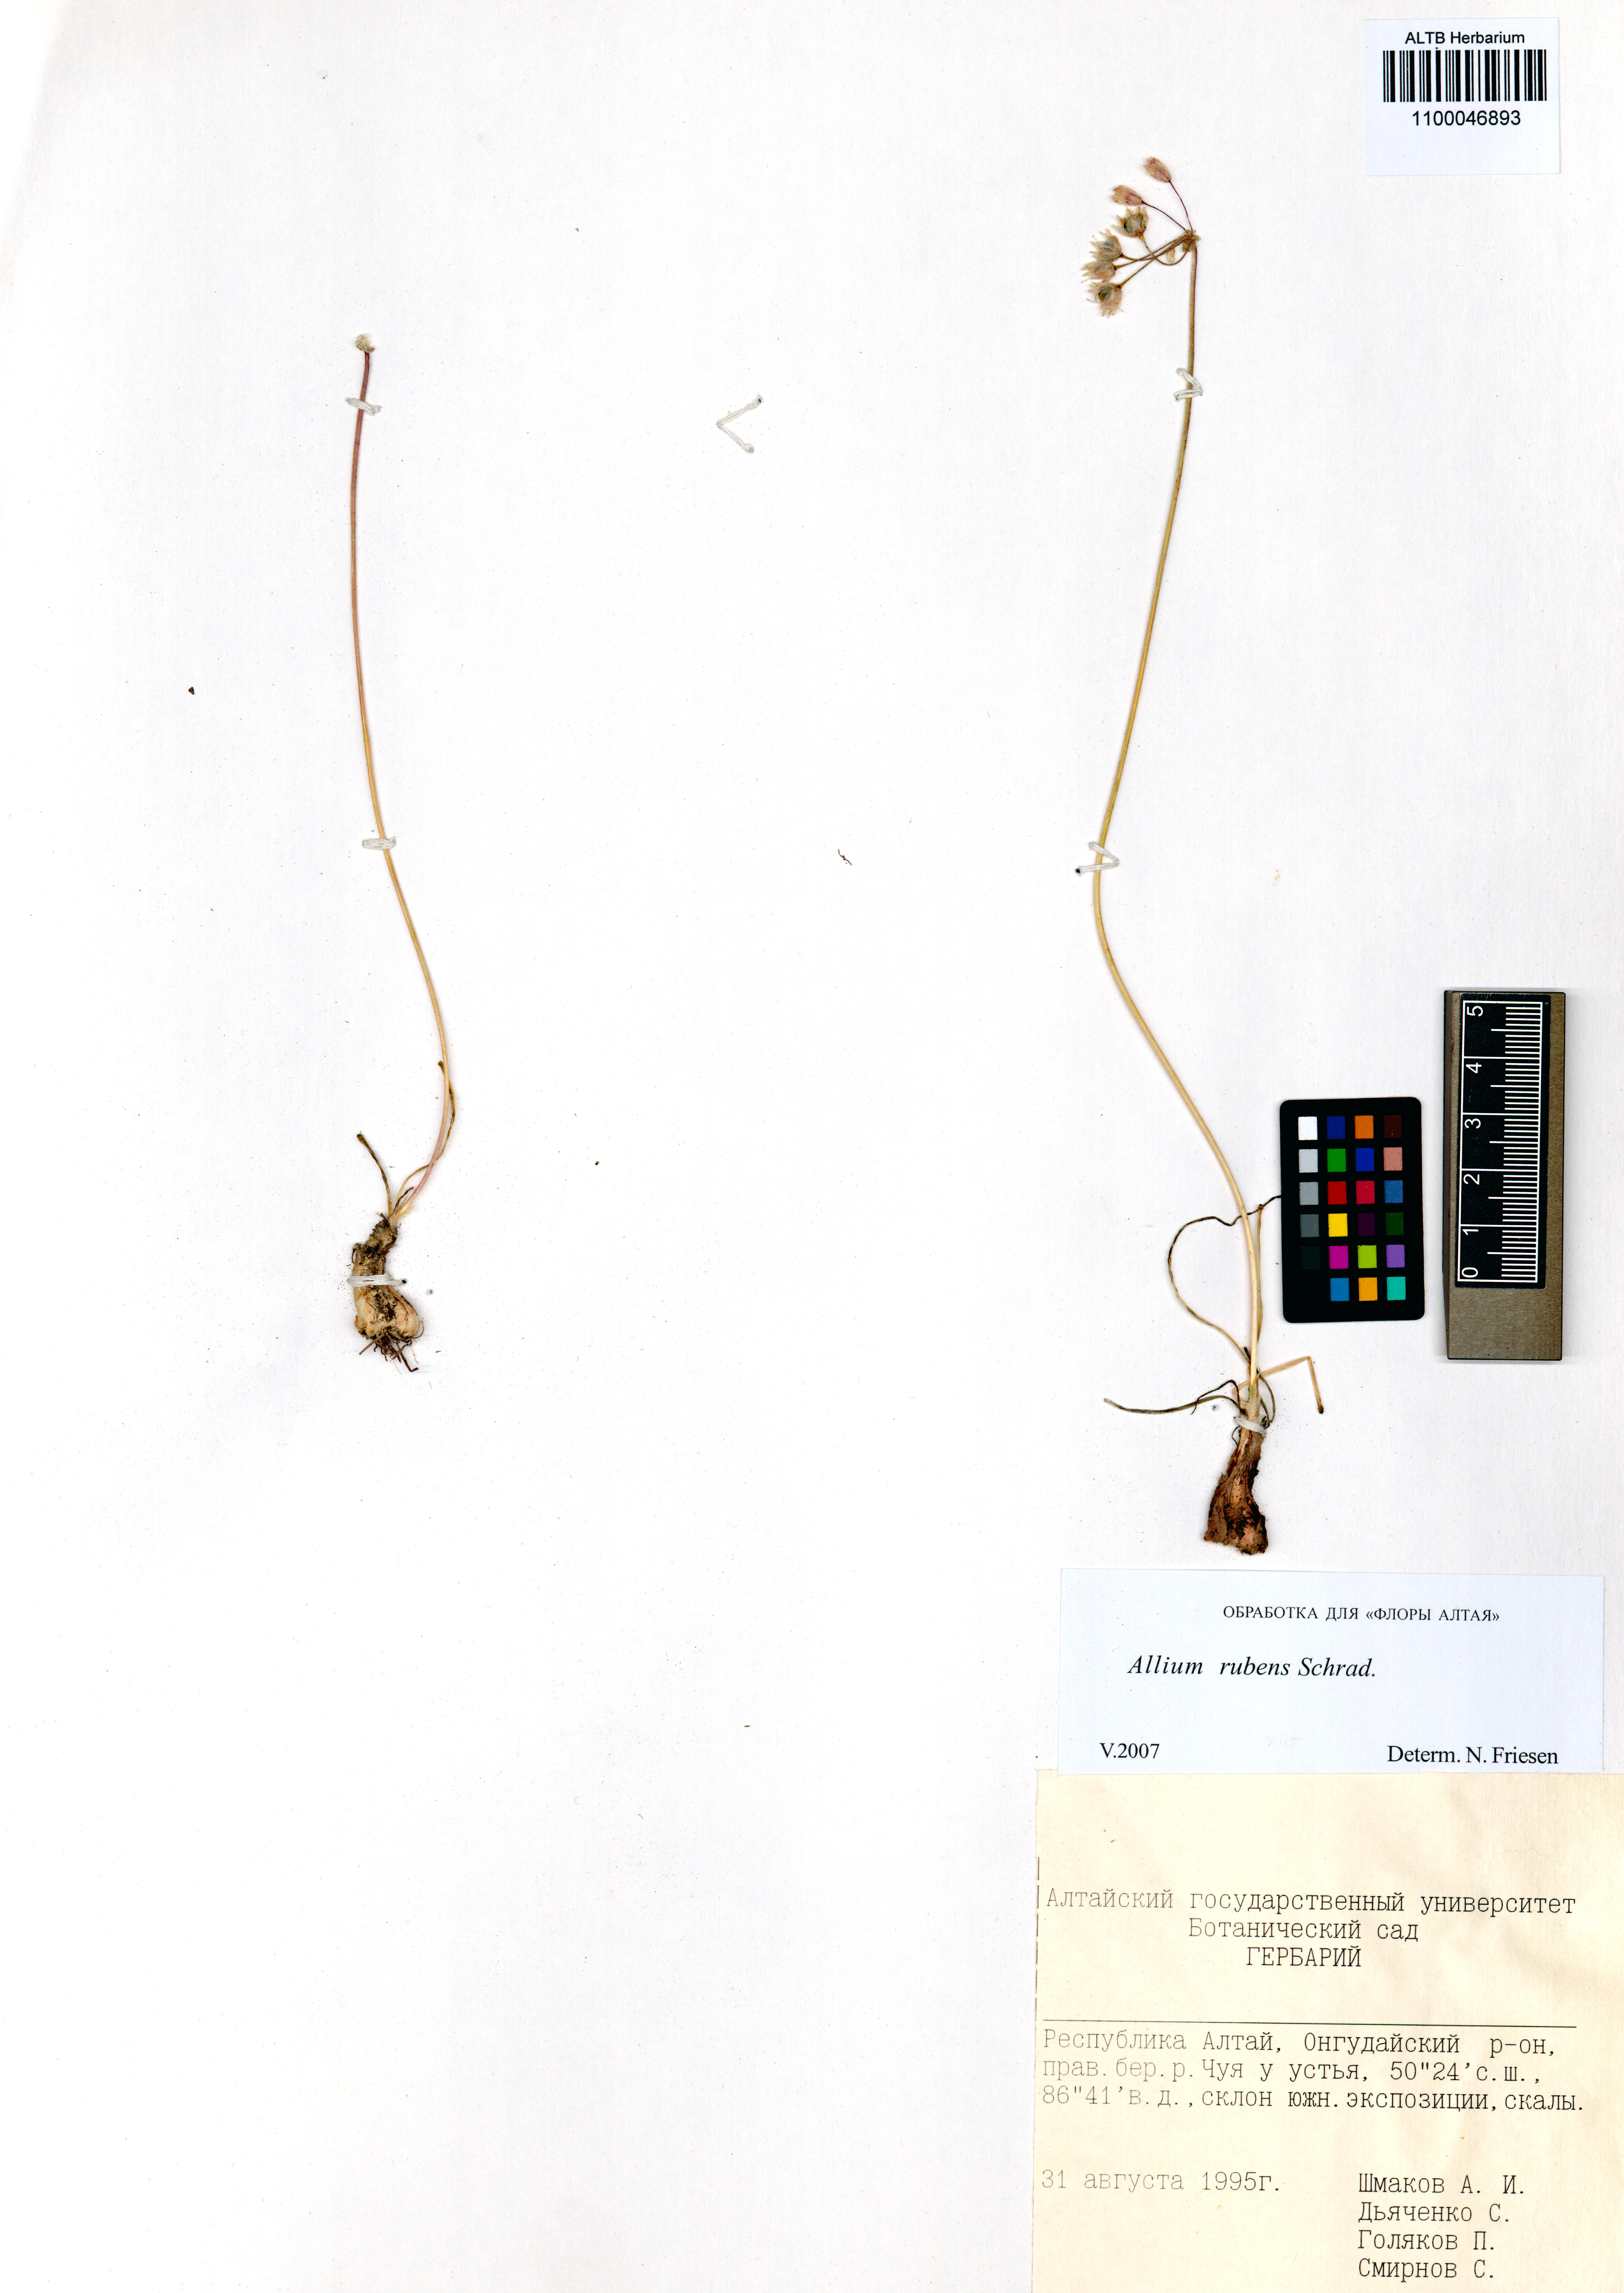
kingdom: Plantae
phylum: Tracheophyta
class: Liliopsida
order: Asparagales
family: Amaryllidaceae
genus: Allium
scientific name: Allium rubens
